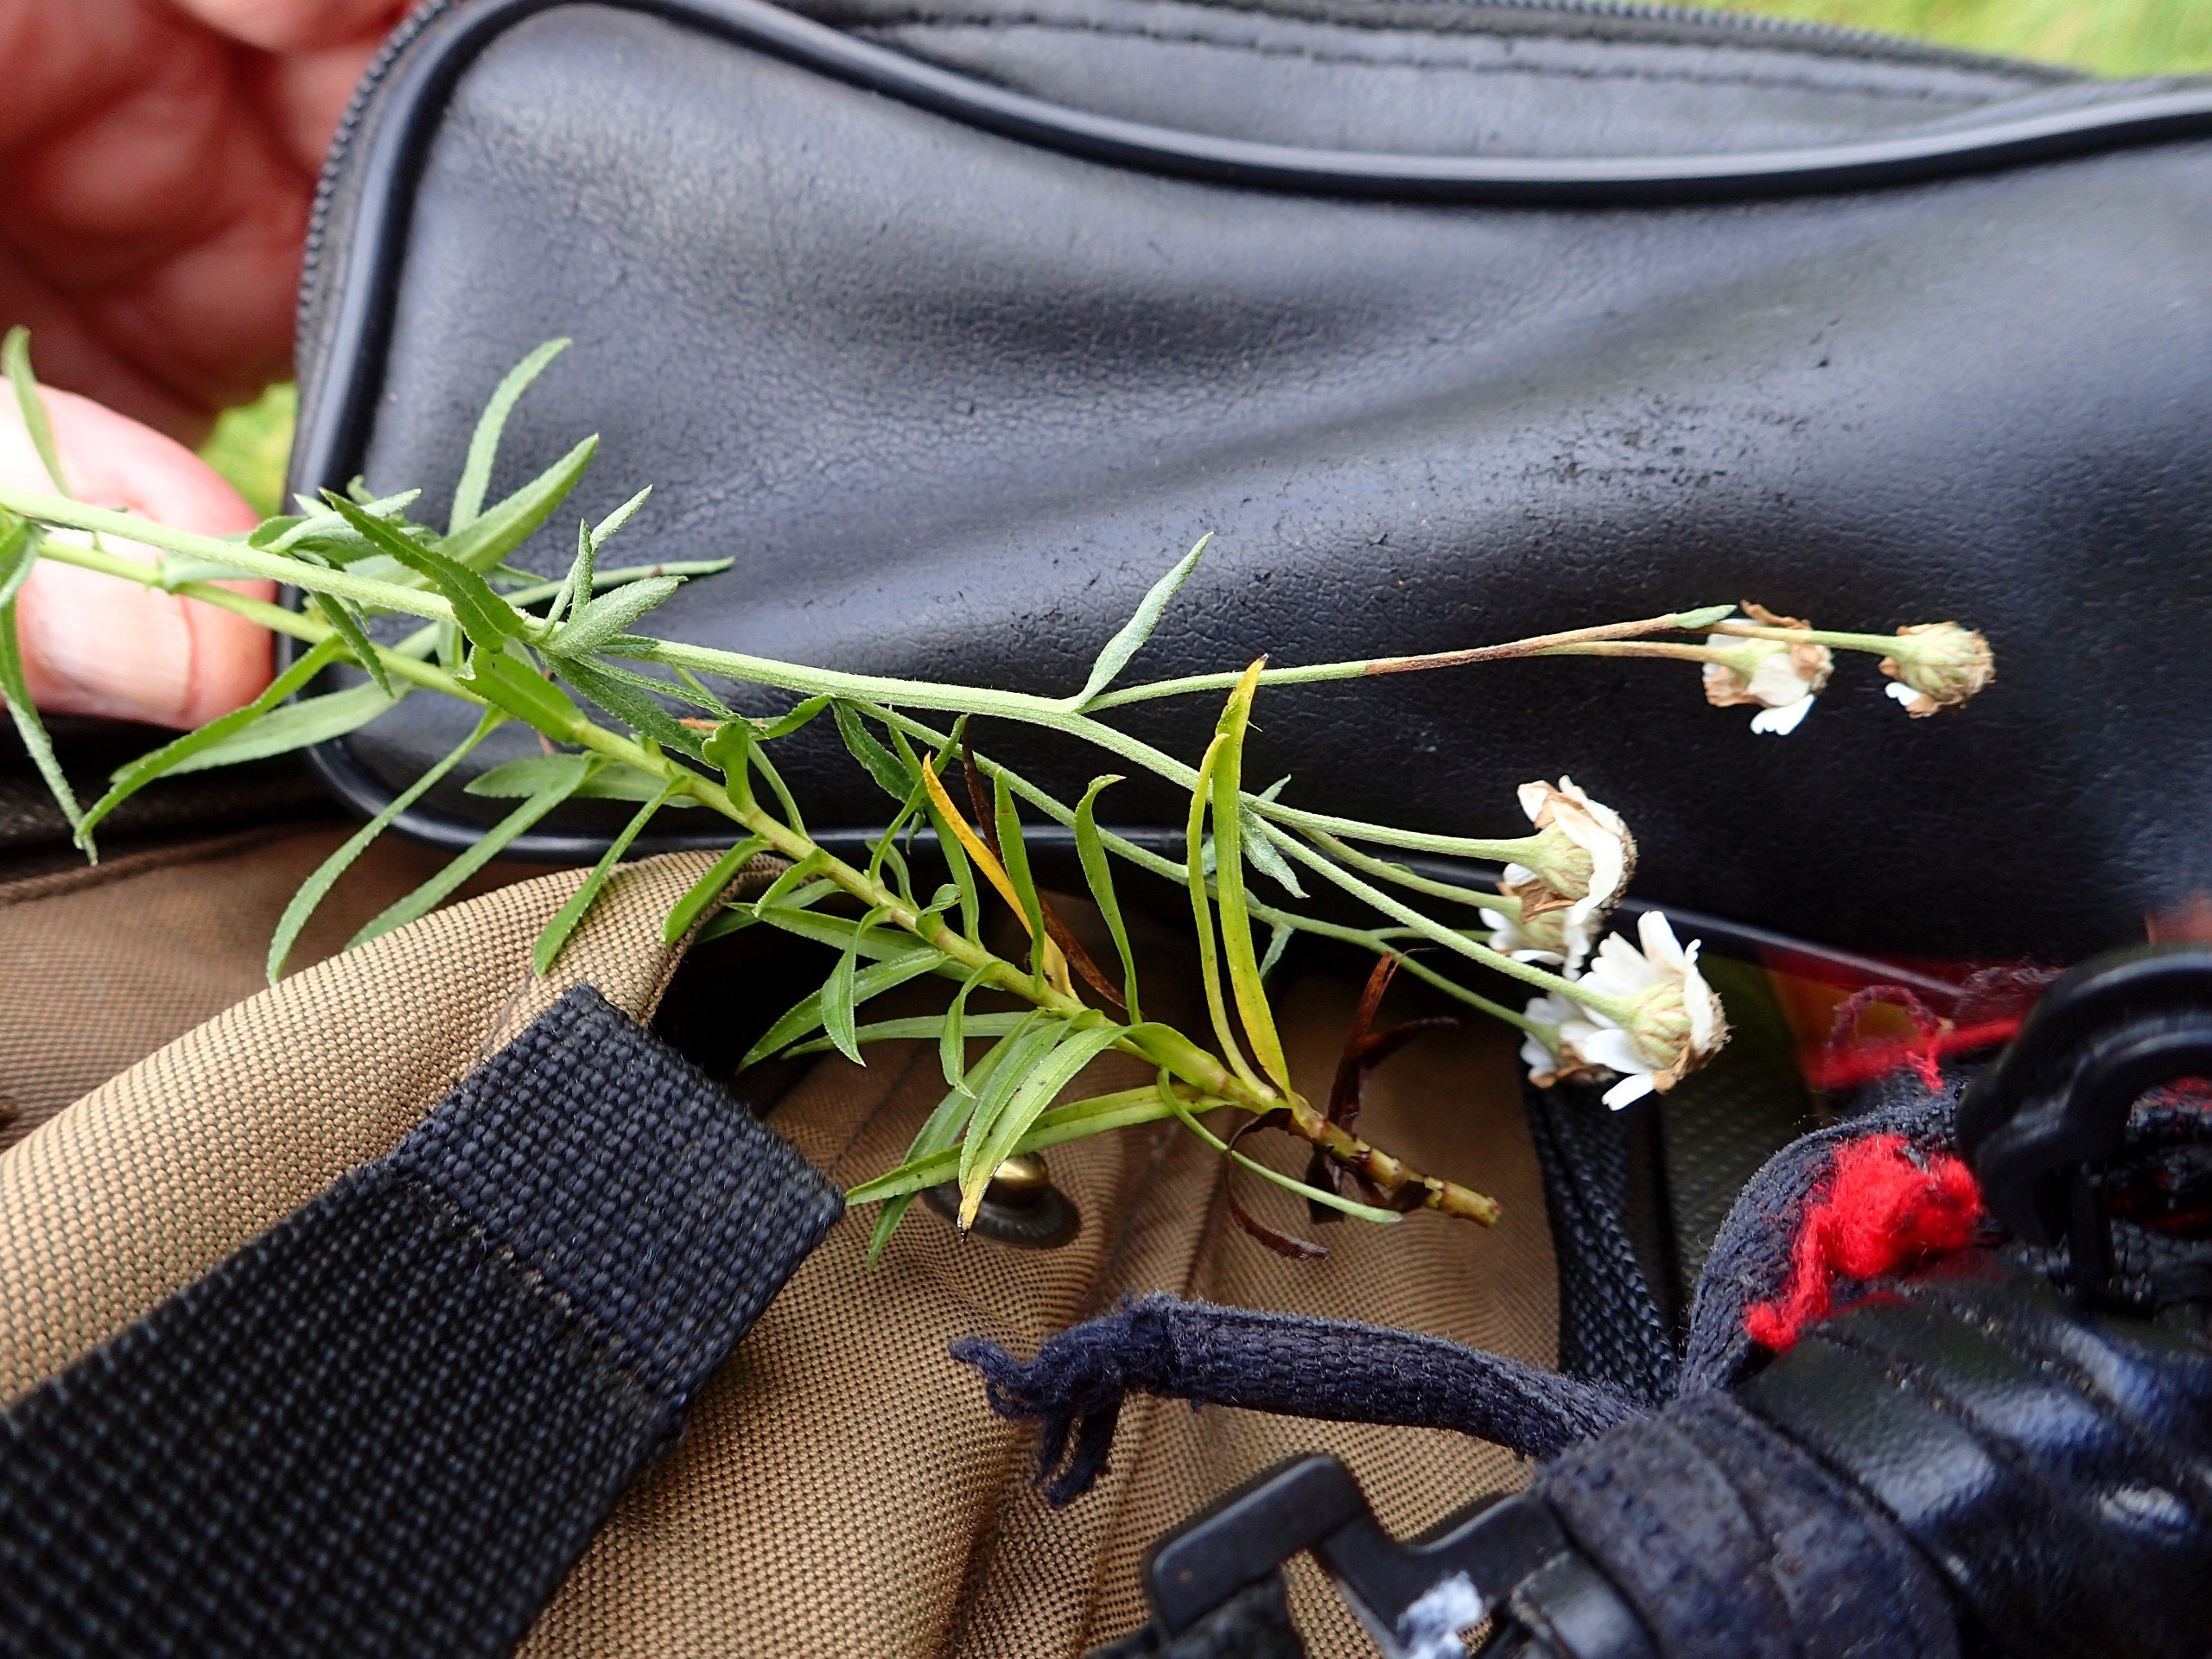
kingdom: Plantae
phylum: Tracheophyta
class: Magnoliopsida
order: Asterales
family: Asteraceae
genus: Achillea
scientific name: Achillea ptarmica
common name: Nyse-røllike
